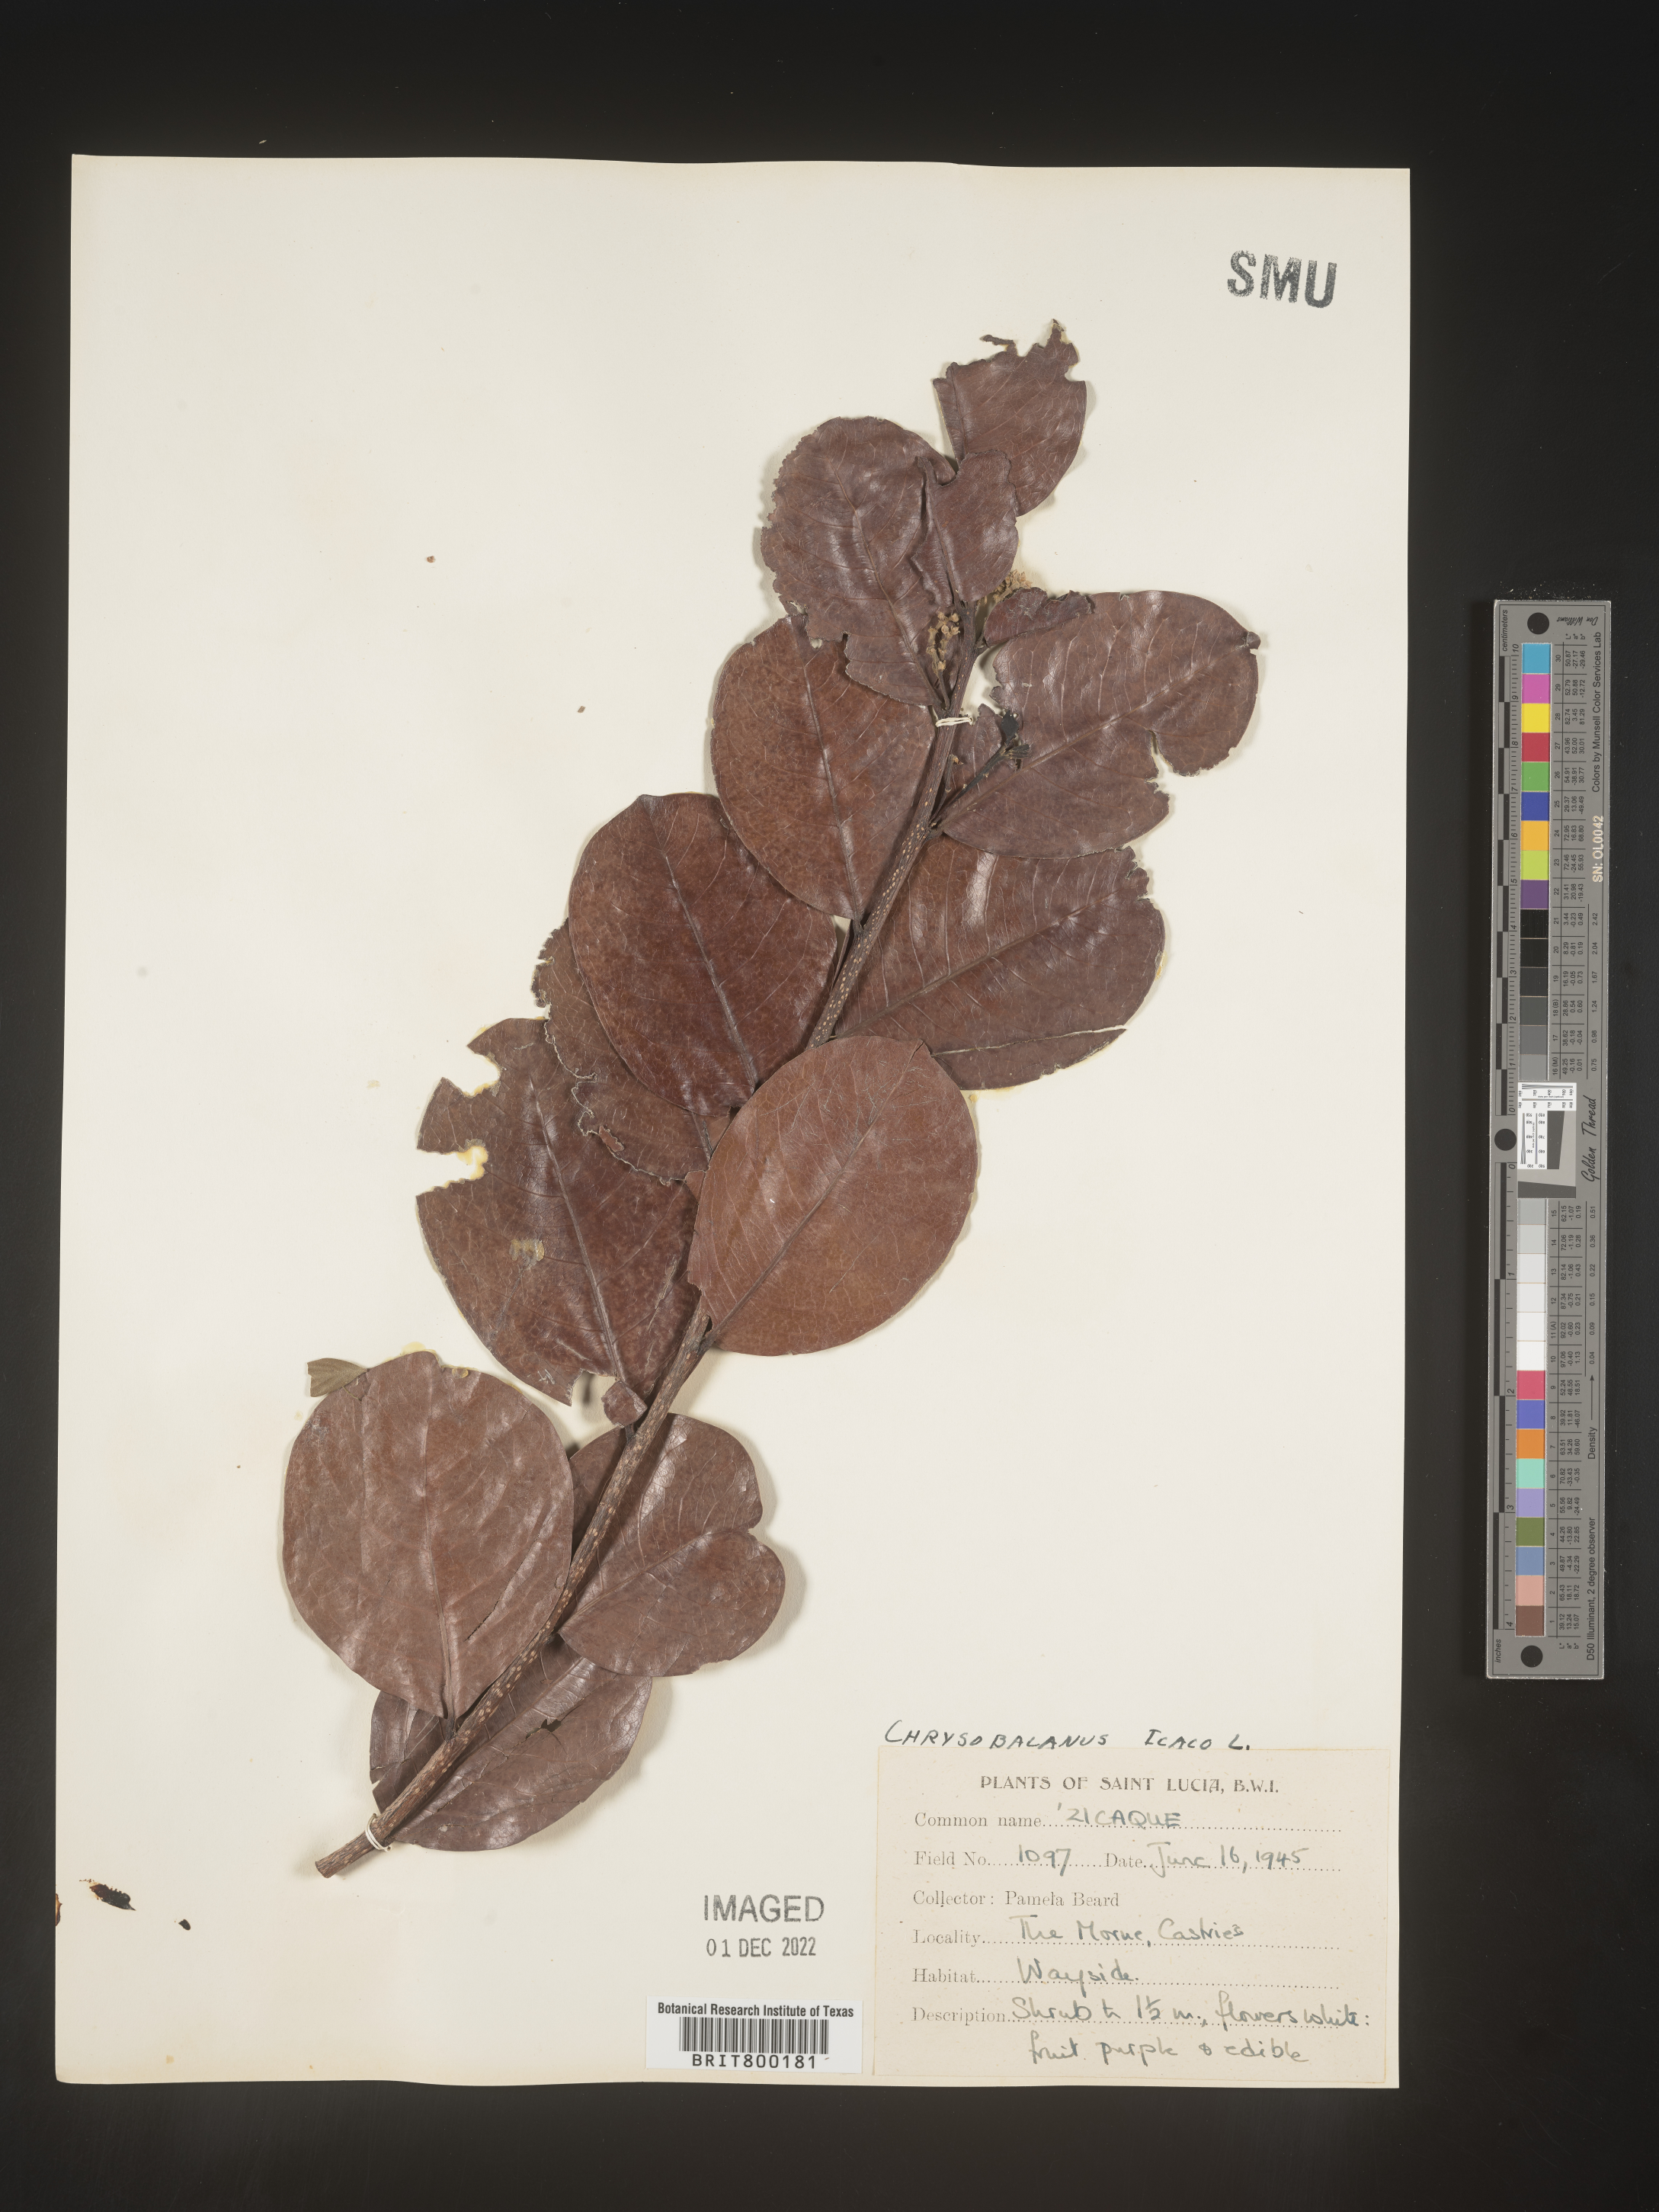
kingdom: Plantae
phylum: Tracheophyta
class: Magnoliopsida
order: Malpighiales
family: Chrysobalanaceae
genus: Chrysobalanus
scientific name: Chrysobalanus
